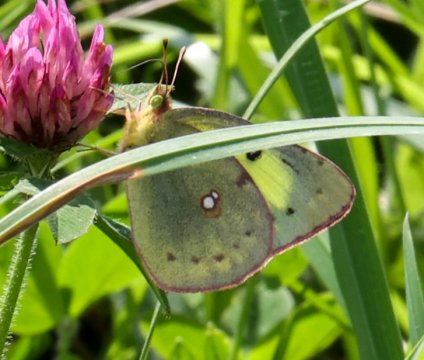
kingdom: Animalia
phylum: Arthropoda
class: Insecta
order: Lepidoptera
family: Pieridae
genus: Colias
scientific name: Colias philodice
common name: Clouded Sulphur
